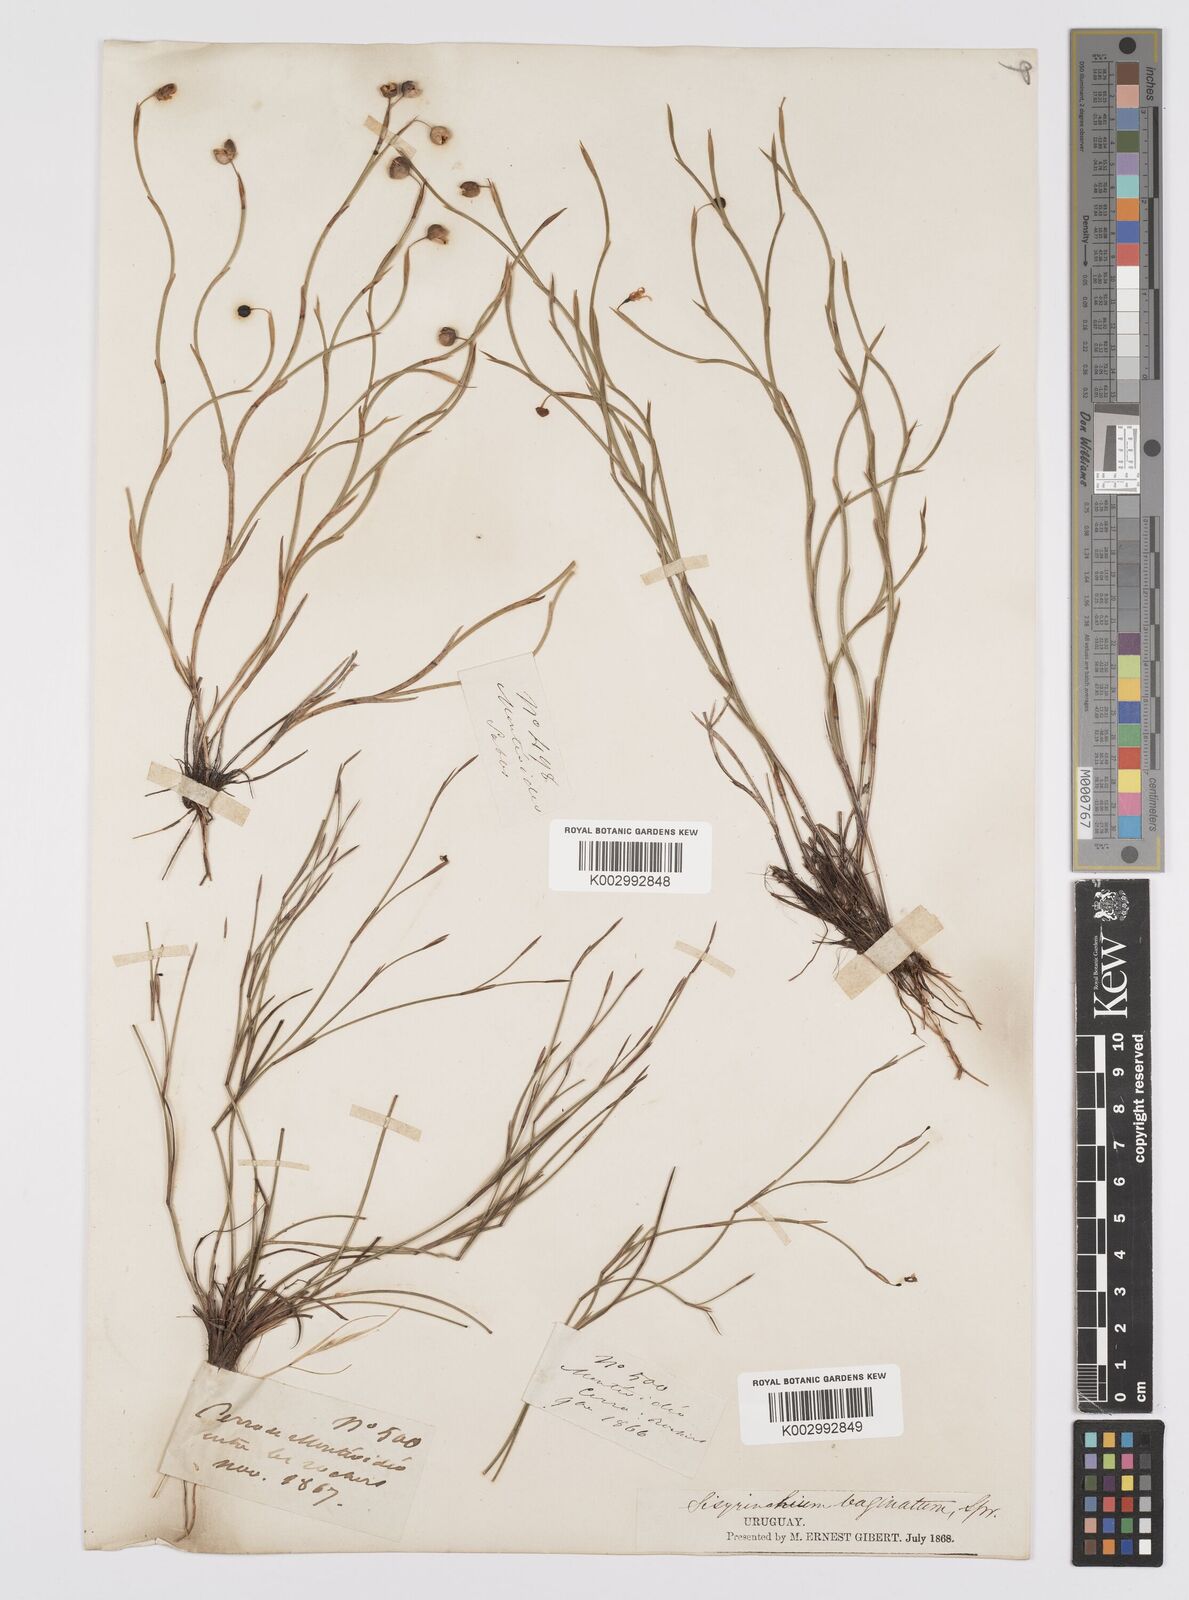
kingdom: Plantae
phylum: Tracheophyta
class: Liliopsida
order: Asparagales
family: Iridaceae
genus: Sisyrinchium
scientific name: Sisyrinchium vaginatum
